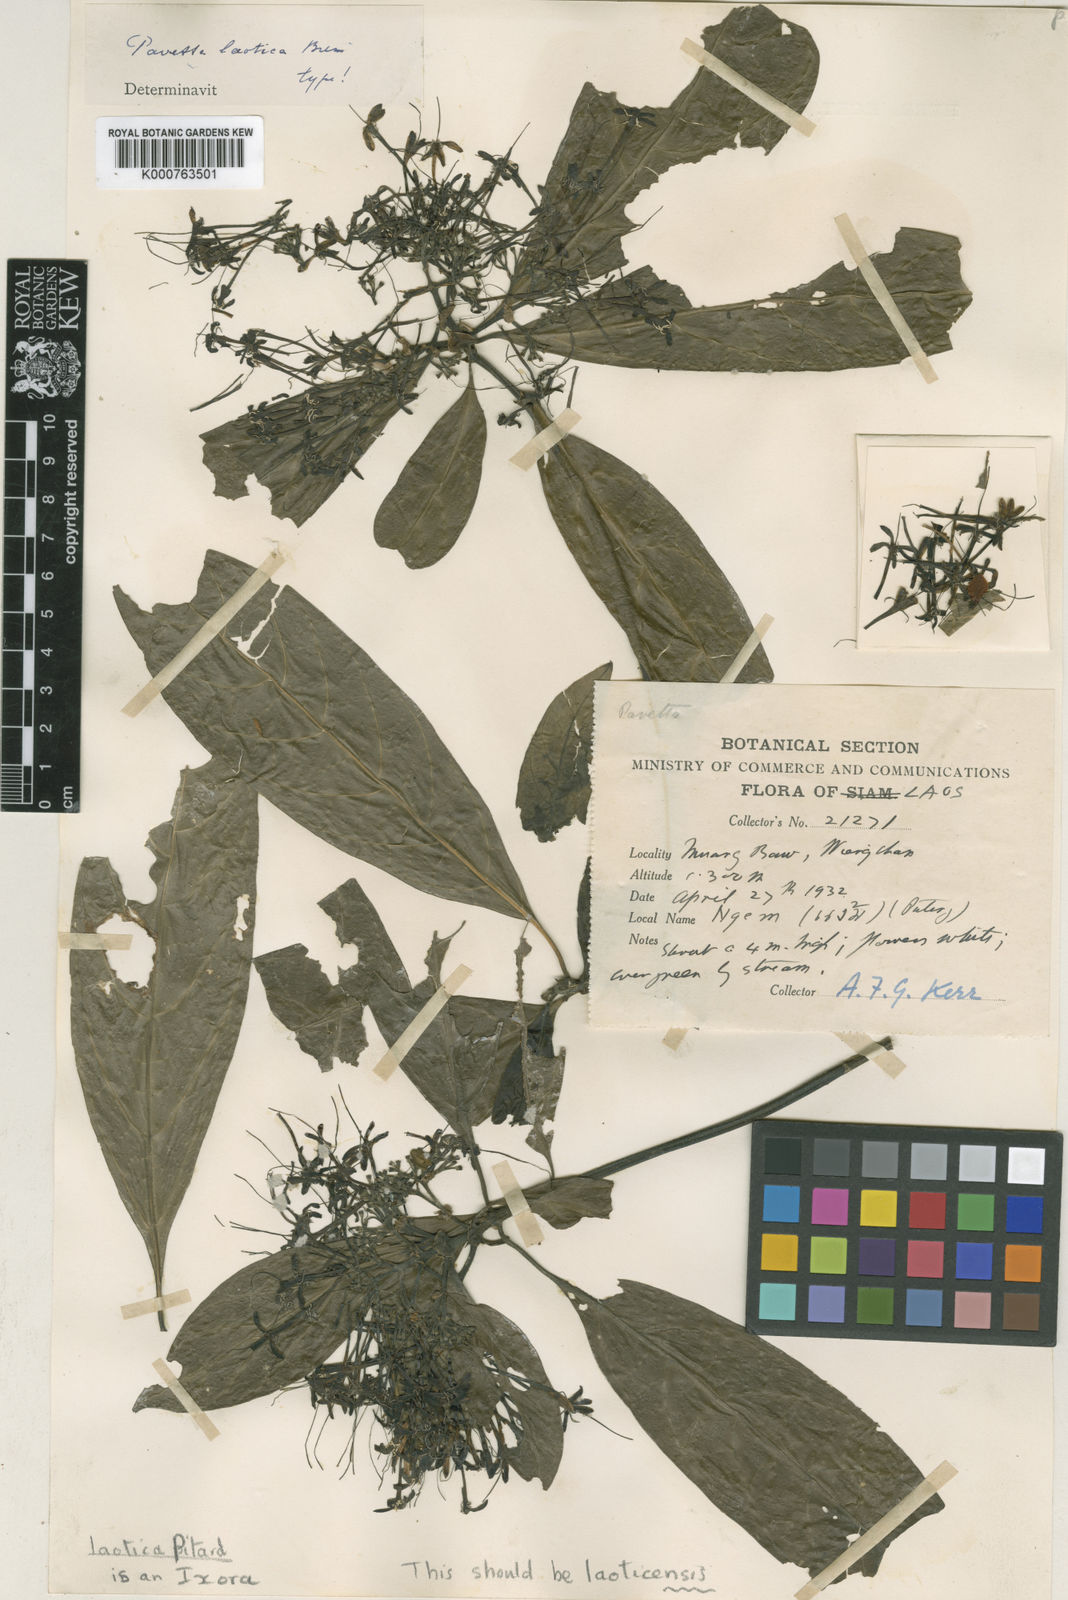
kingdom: Plantae
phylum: Tracheophyta
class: Magnoliopsida
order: Gentianales
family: Rubiaceae
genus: Pavetta
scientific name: Pavetta aspera
